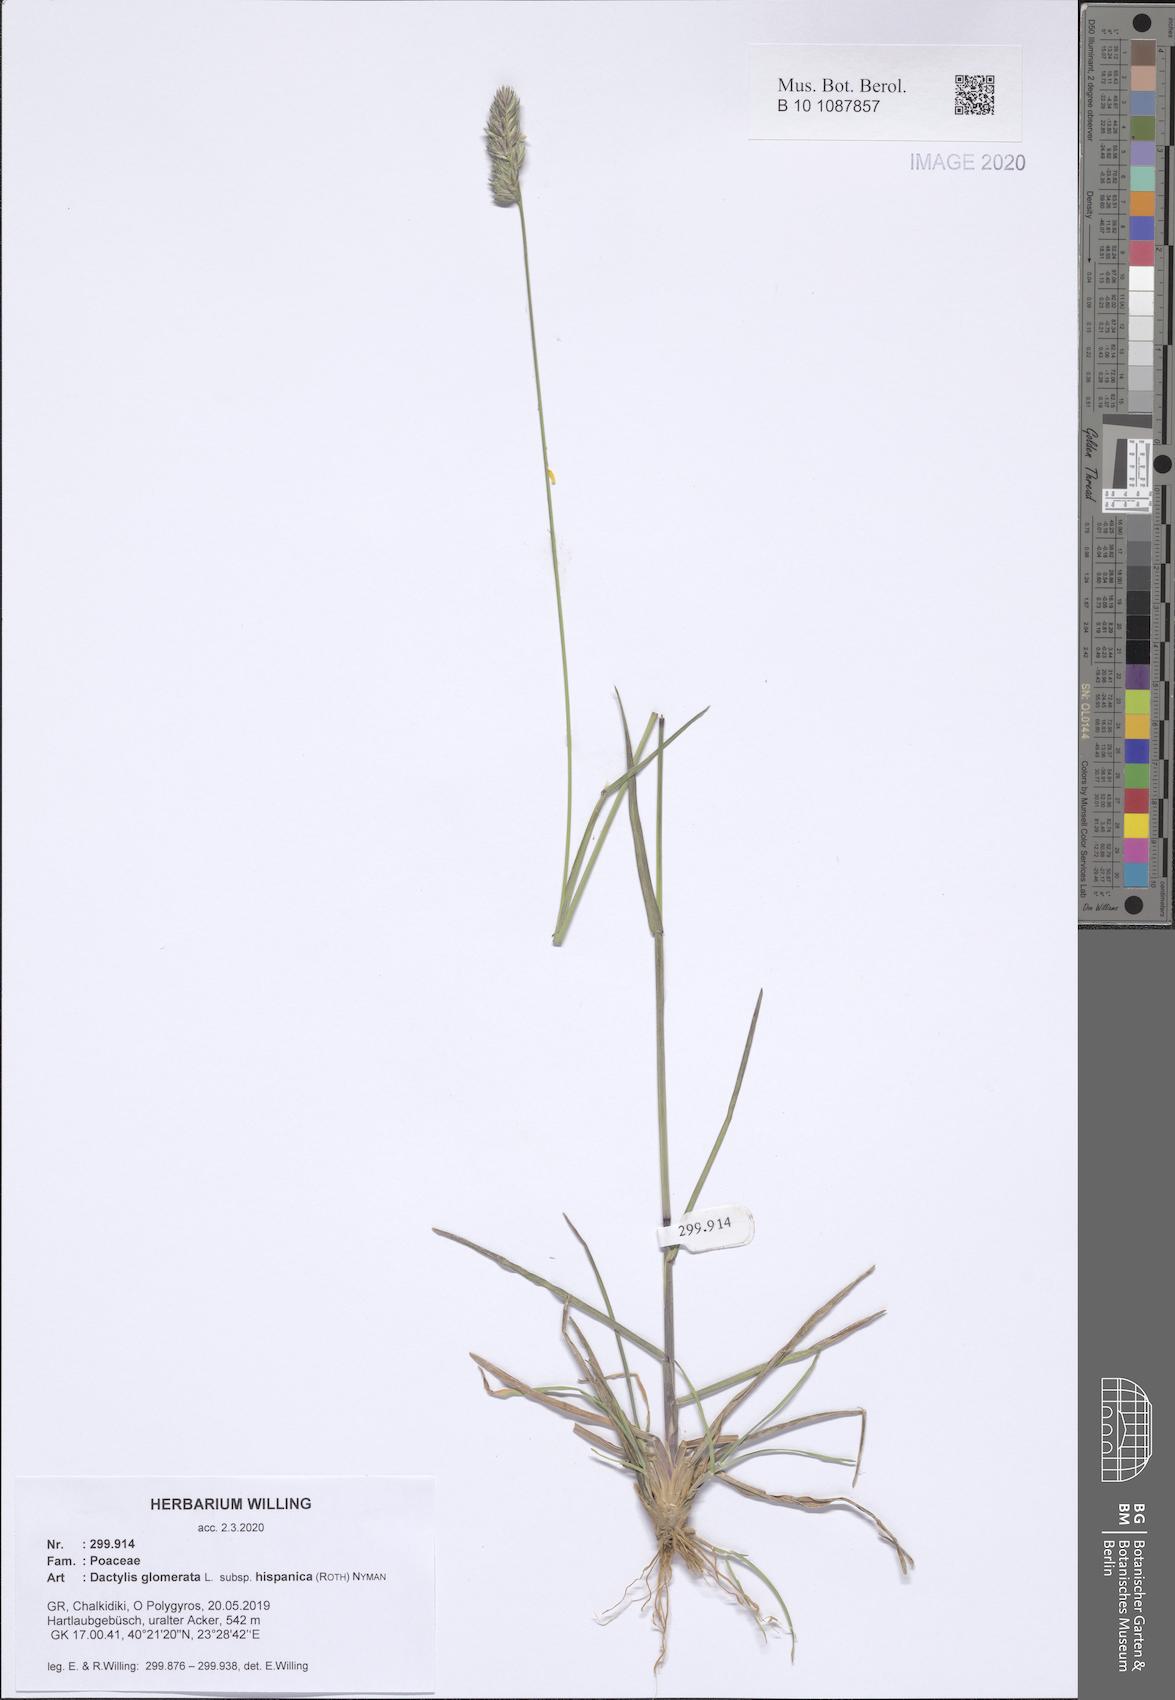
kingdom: Plantae
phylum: Tracheophyta
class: Liliopsida
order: Poales
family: Poaceae
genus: Dactylis
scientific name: Dactylis glomerata
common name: Orchardgrass
